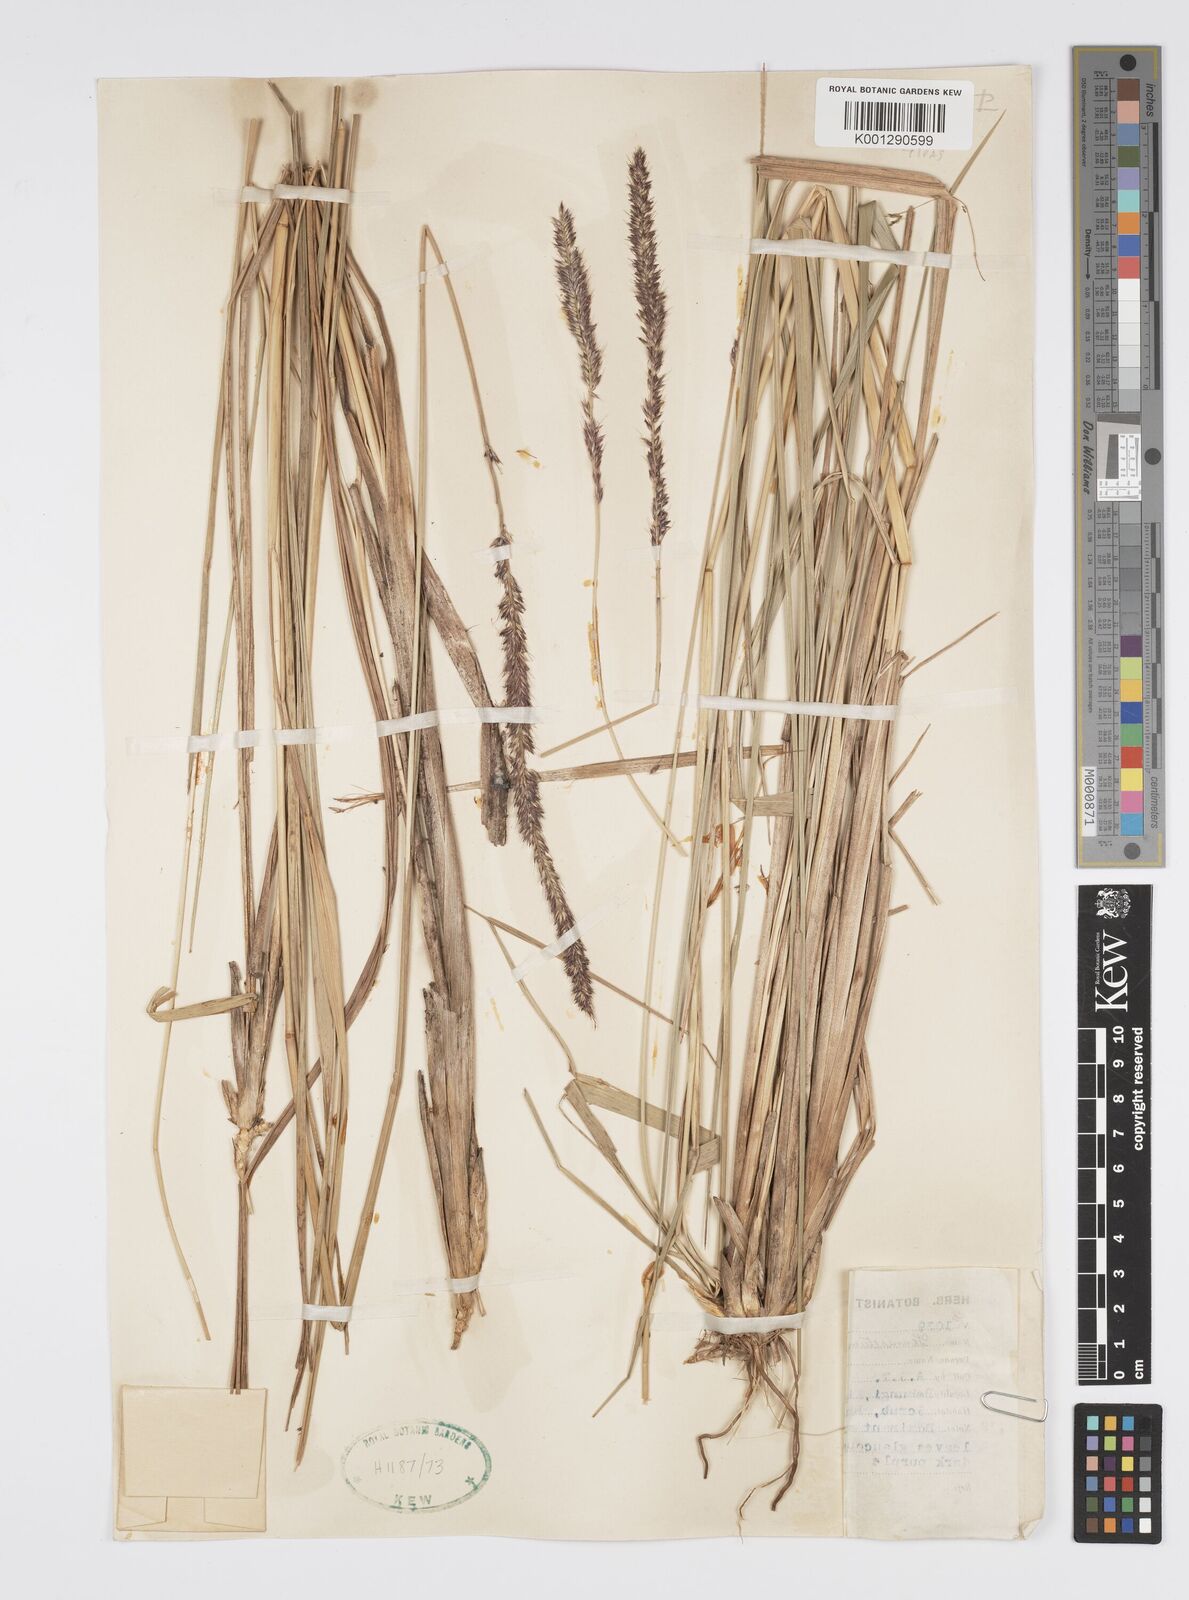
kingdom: Plantae
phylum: Tracheophyta
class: Liliopsida
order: Poales
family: Poaceae
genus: Cenchrus
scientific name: Cenchrus caudatus
